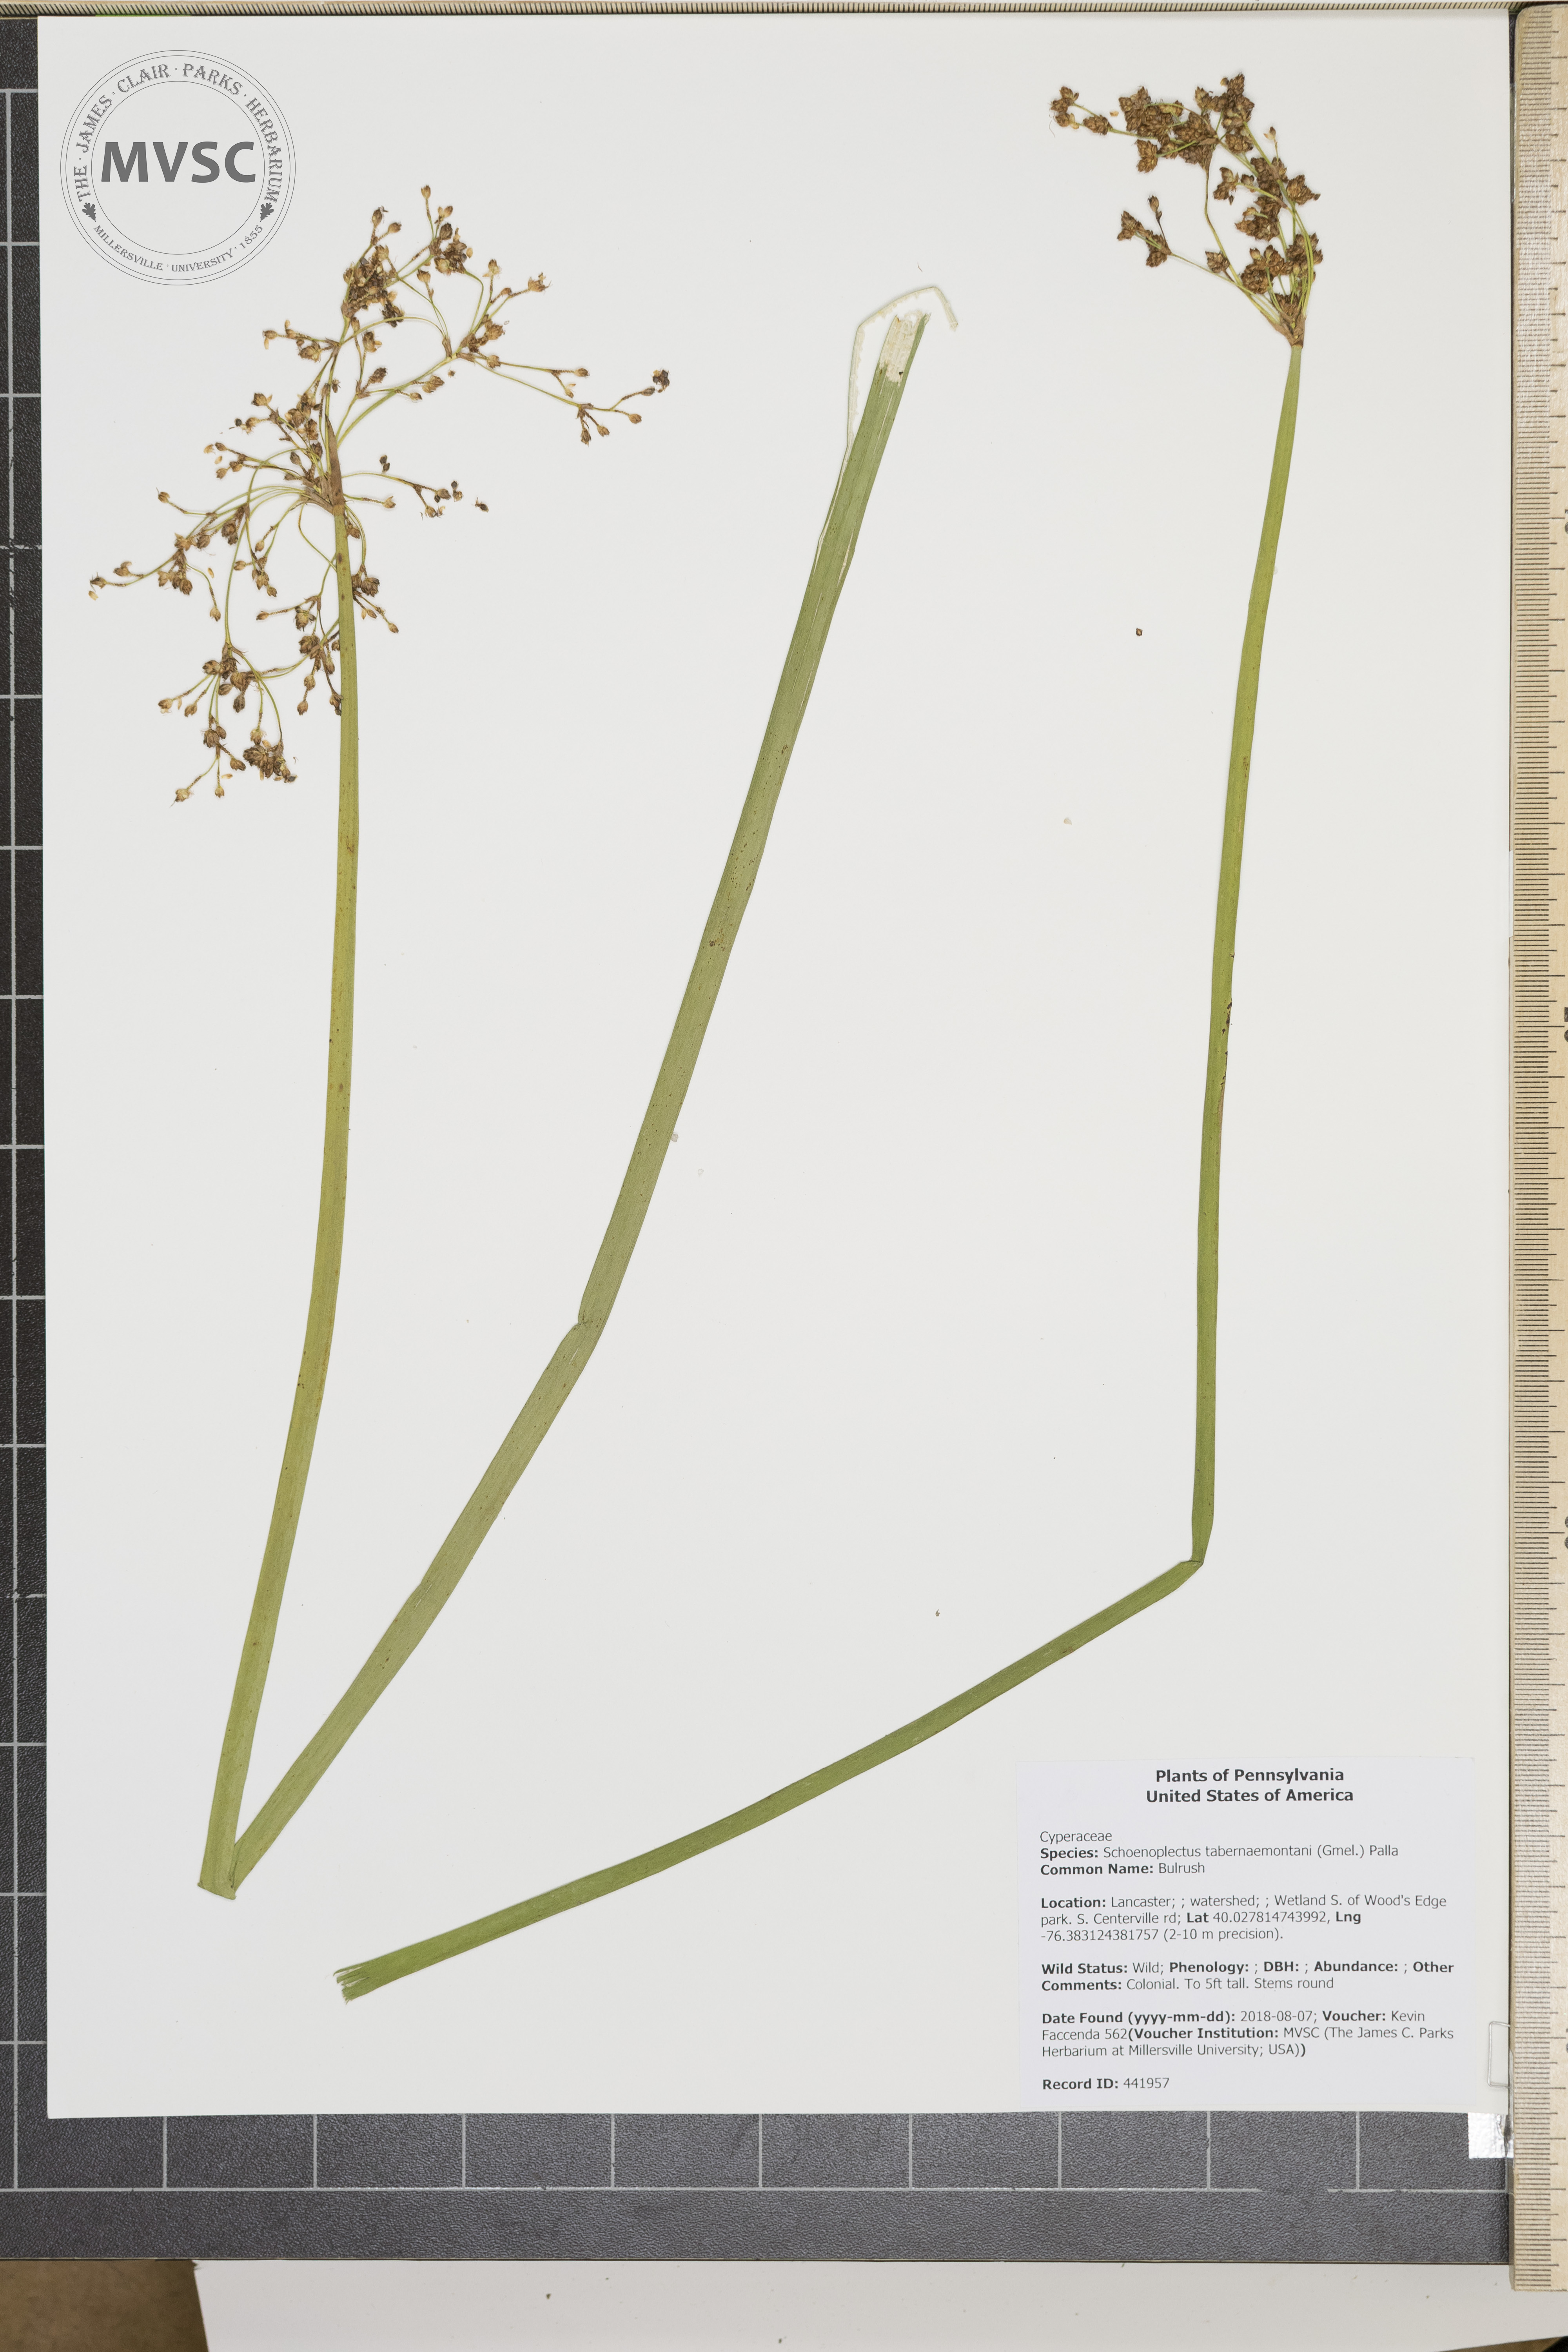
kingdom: Plantae
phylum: Tracheophyta
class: Liliopsida
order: Poales
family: Cyperaceae
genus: Schoenoplectus
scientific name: Schoenoplectus tabernaemontani
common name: Bulrush
